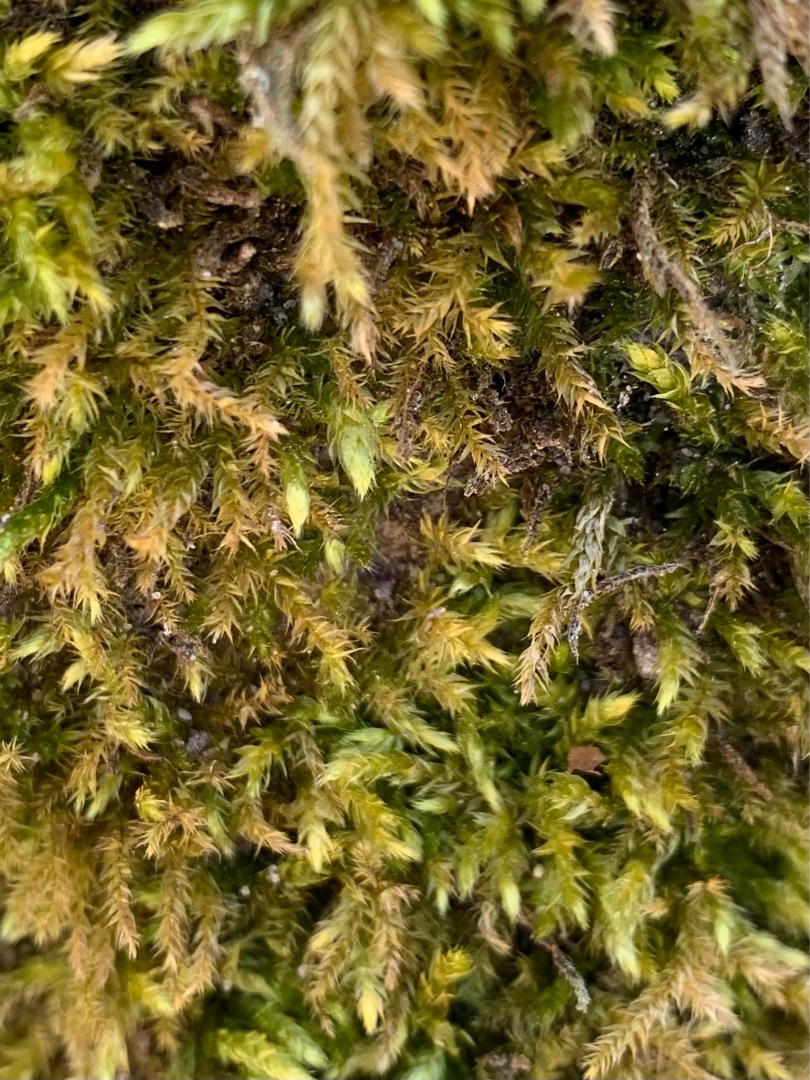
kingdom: Plantae
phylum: Bryophyta
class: Bryopsida
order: Hypnales
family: Brachytheciaceae
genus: Brachythecium
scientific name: Brachythecium rutabulum
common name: Almindelig kortkapsel
